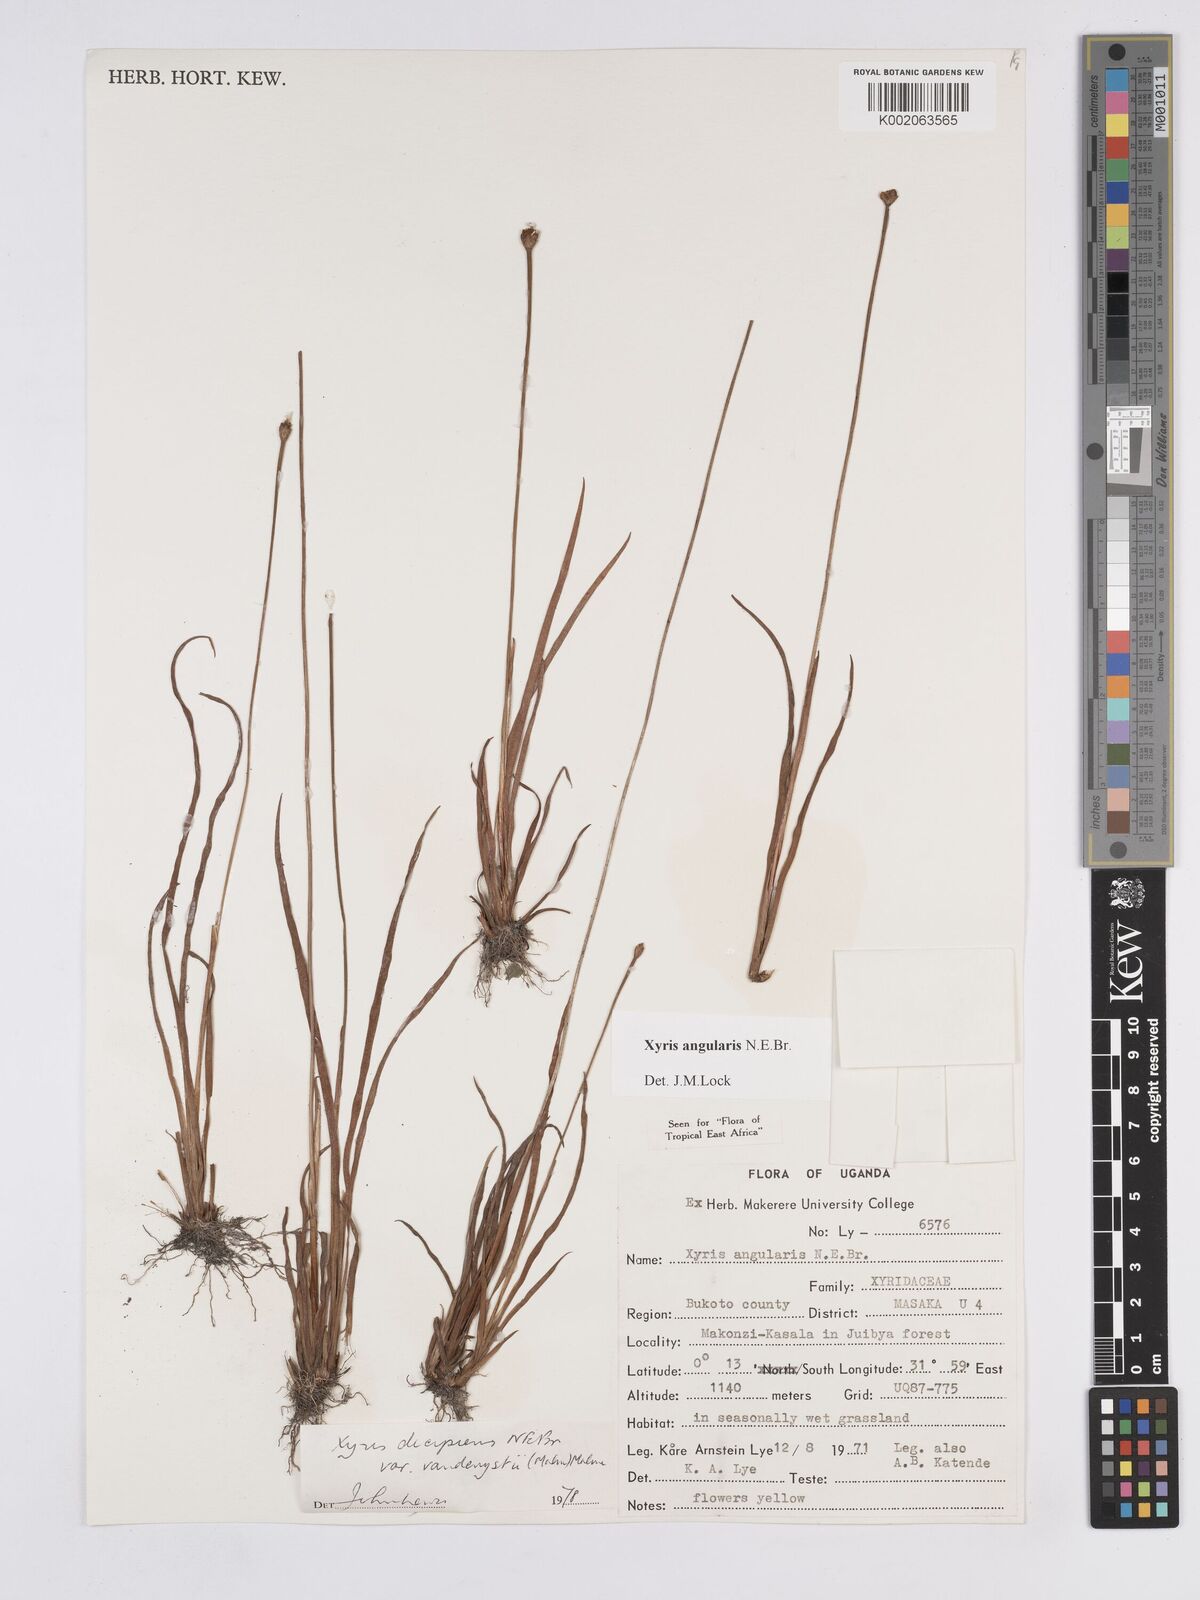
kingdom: Plantae
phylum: Tracheophyta
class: Liliopsida
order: Poales
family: Xyridaceae
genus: Xyris
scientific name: Xyris angularis
